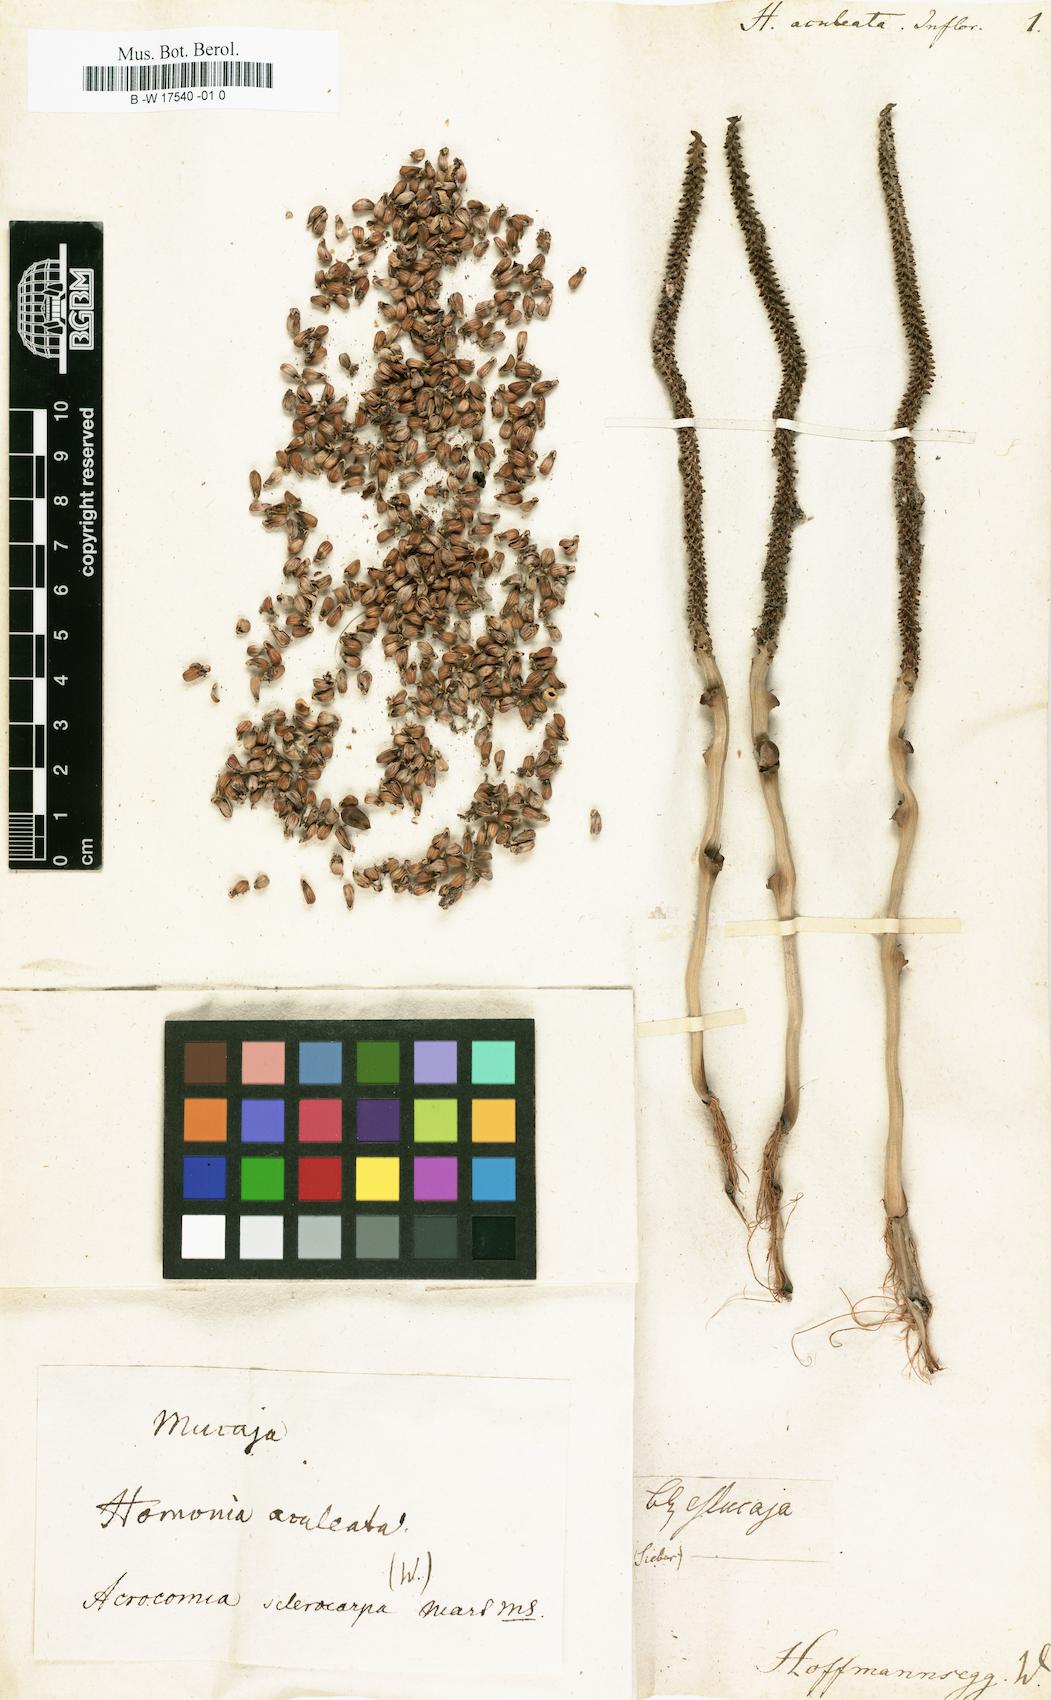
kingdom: Plantae
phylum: Tracheophyta
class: Magnoliopsida
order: Malpighiales
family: Euphorbiaceae
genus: Homonoia
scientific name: Homonoia
